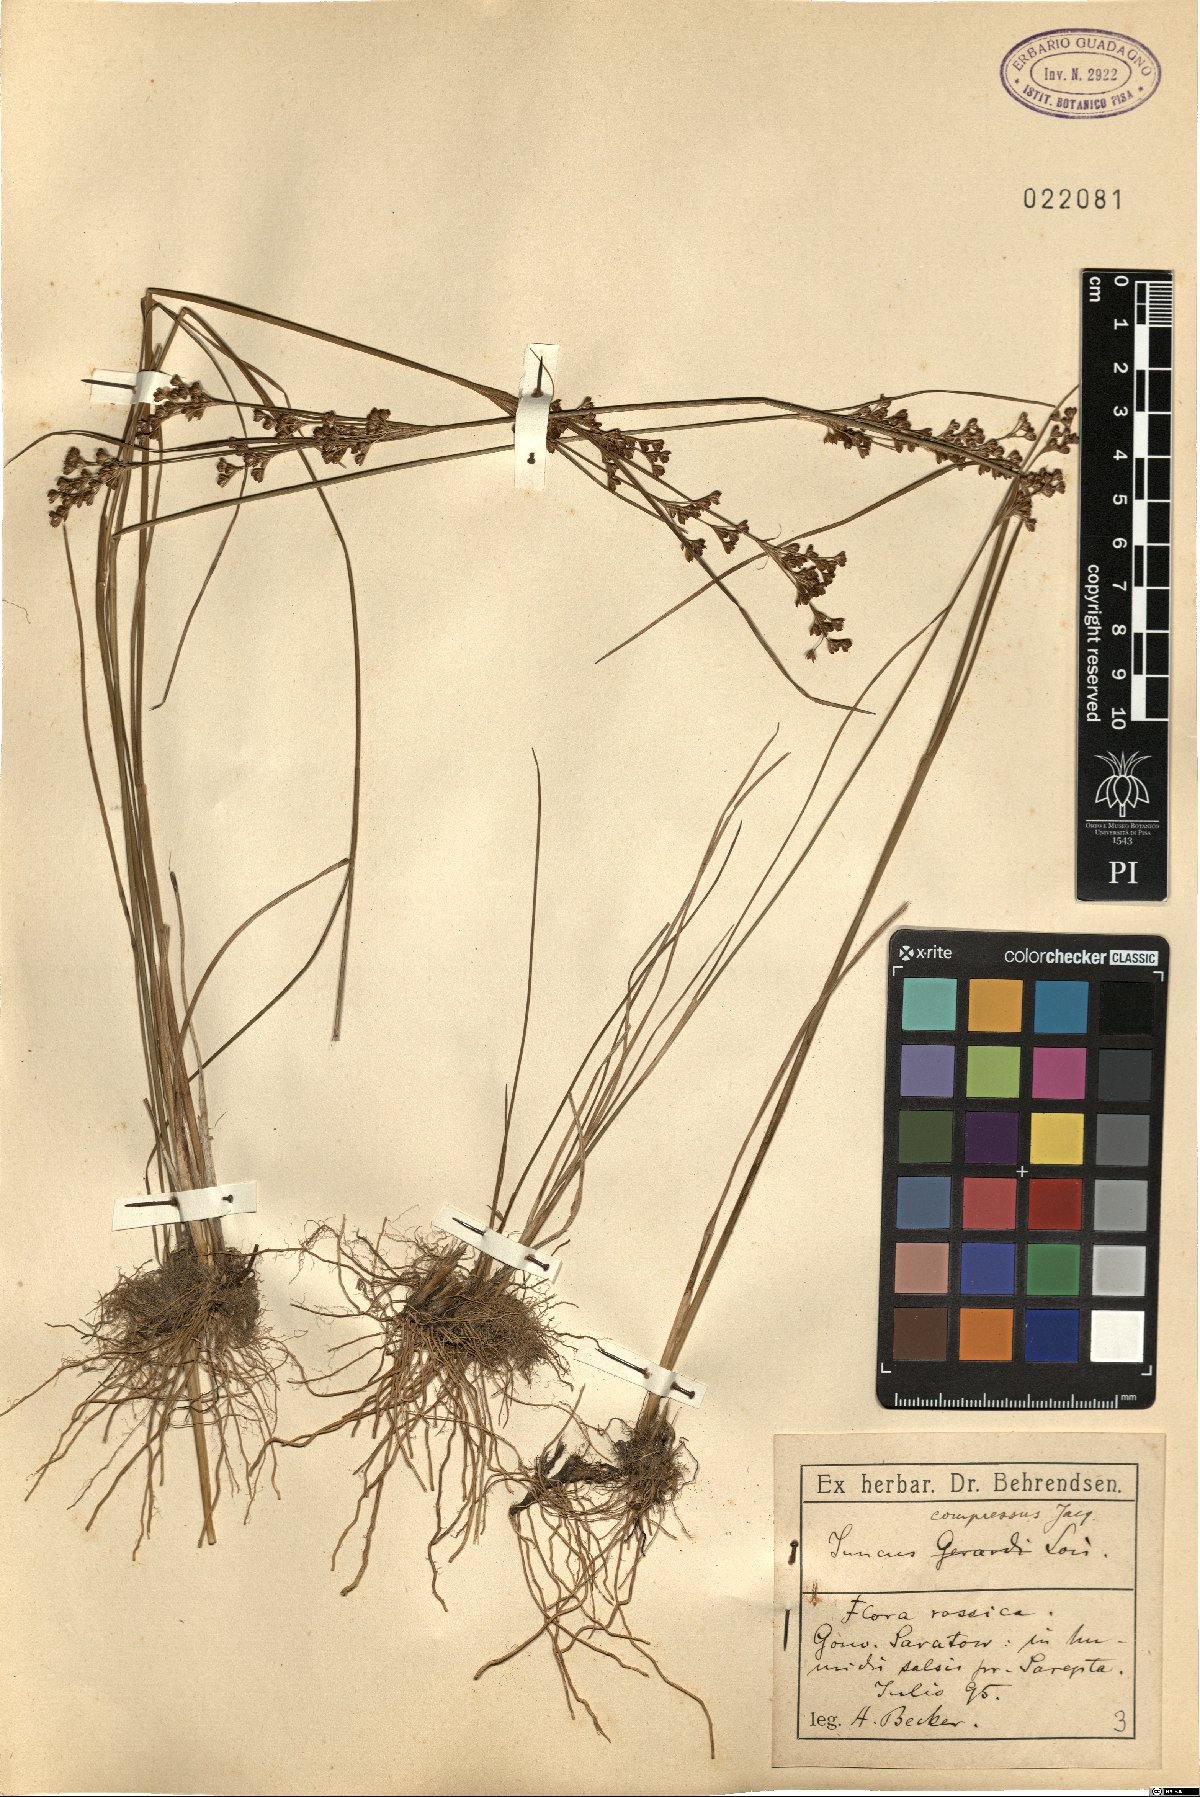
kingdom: Plantae
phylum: Tracheophyta
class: Liliopsida
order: Poales
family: Juncaceae
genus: Juncus
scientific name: Juncus compressus
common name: Round-fruited rush
